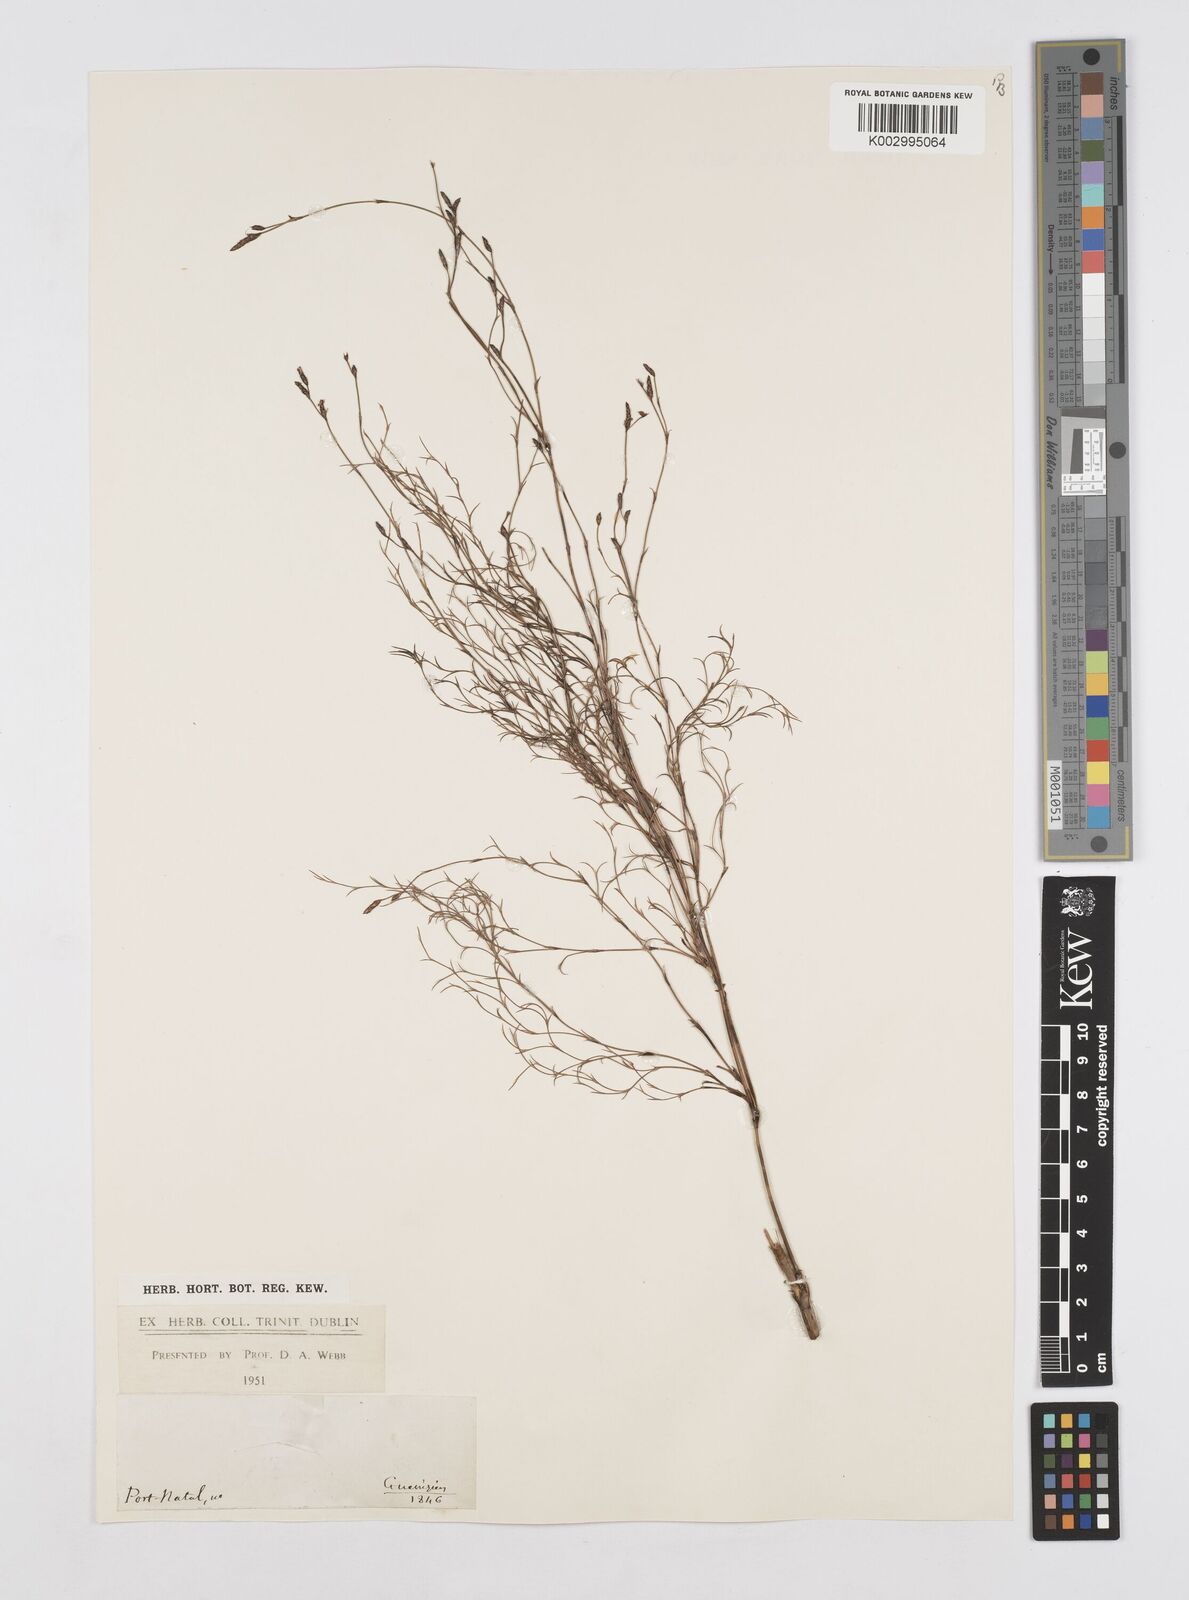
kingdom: Plantae
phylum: Tracheophyta
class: Liliopsida
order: Poales
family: Restionaceae
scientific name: Restionaceae
